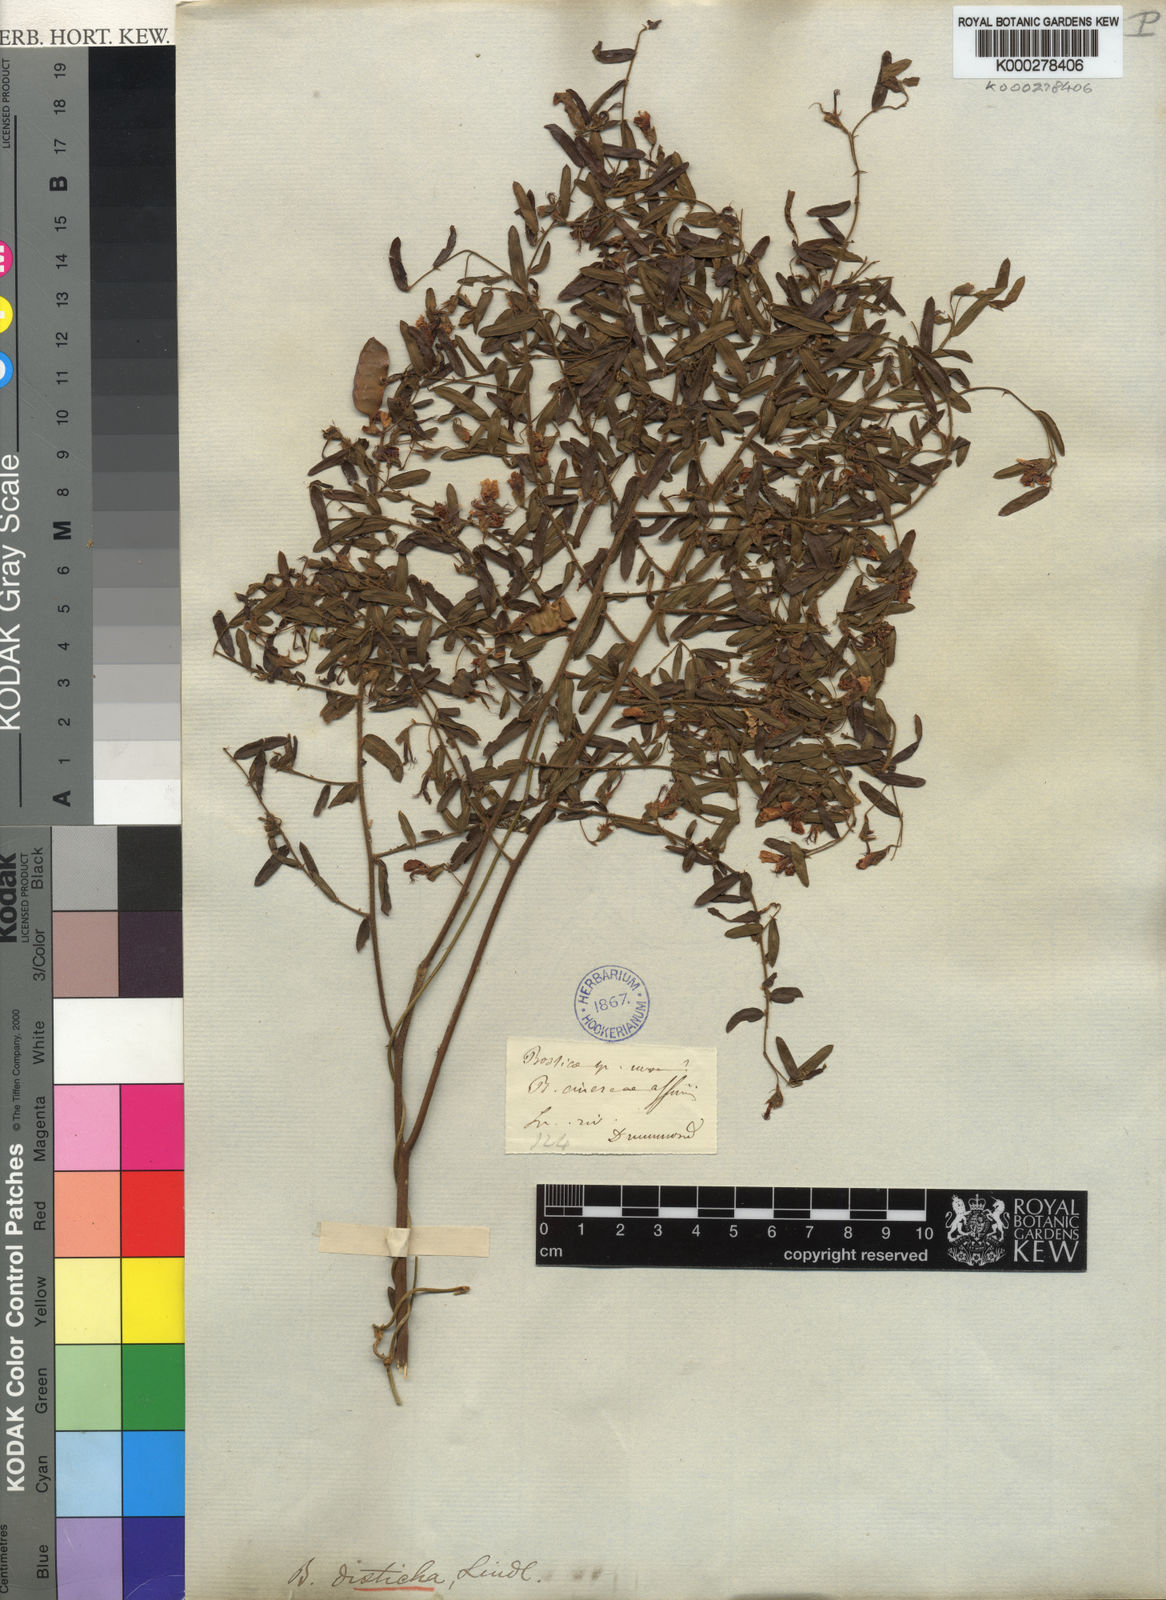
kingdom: Plantae
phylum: Tracheophyta
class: Magnoliopsida
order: Fabales
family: Fabaceae
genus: Bossiaea
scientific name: Bossiaea disticha
